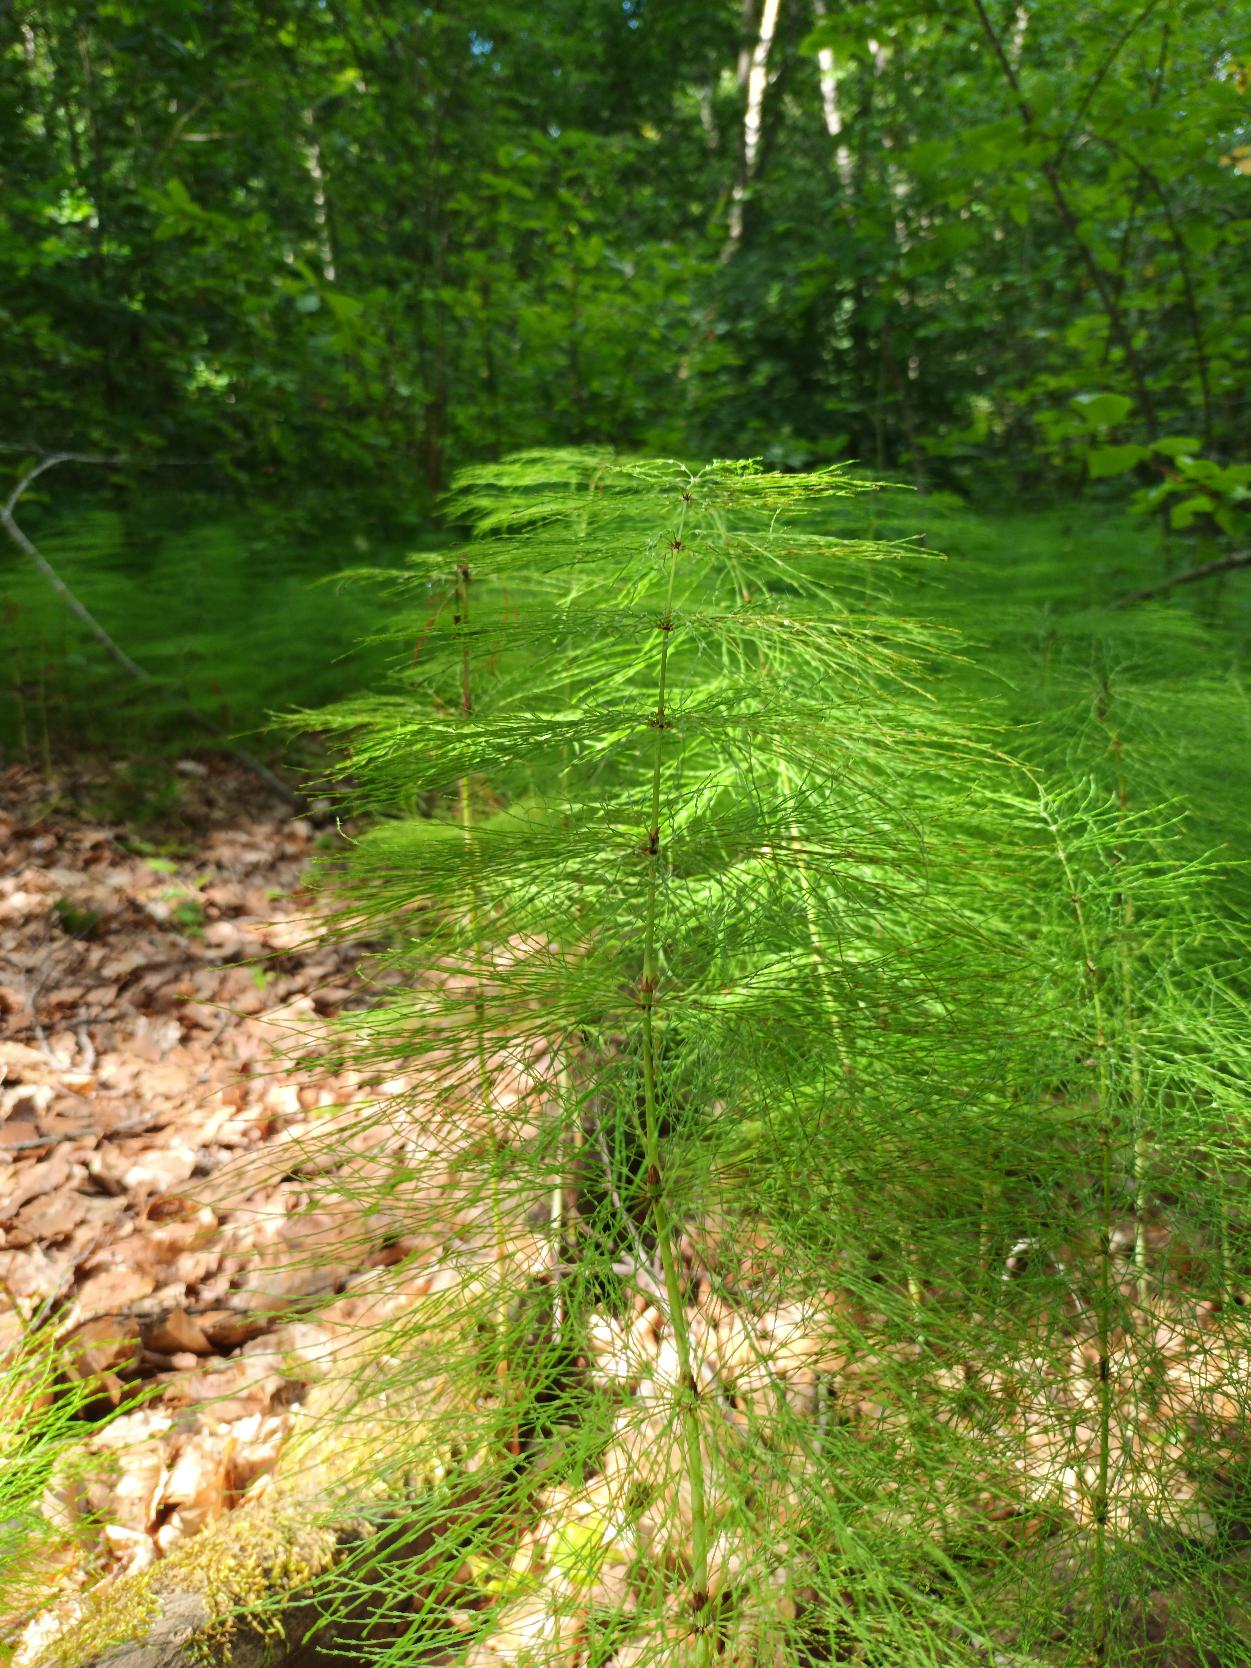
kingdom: Plantae
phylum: Tracheophyta
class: Polypodiopsida
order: Equisetales
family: Equisetaceae
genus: Equisetum
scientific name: Equisetum sylvaticum
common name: Skov-padderok
